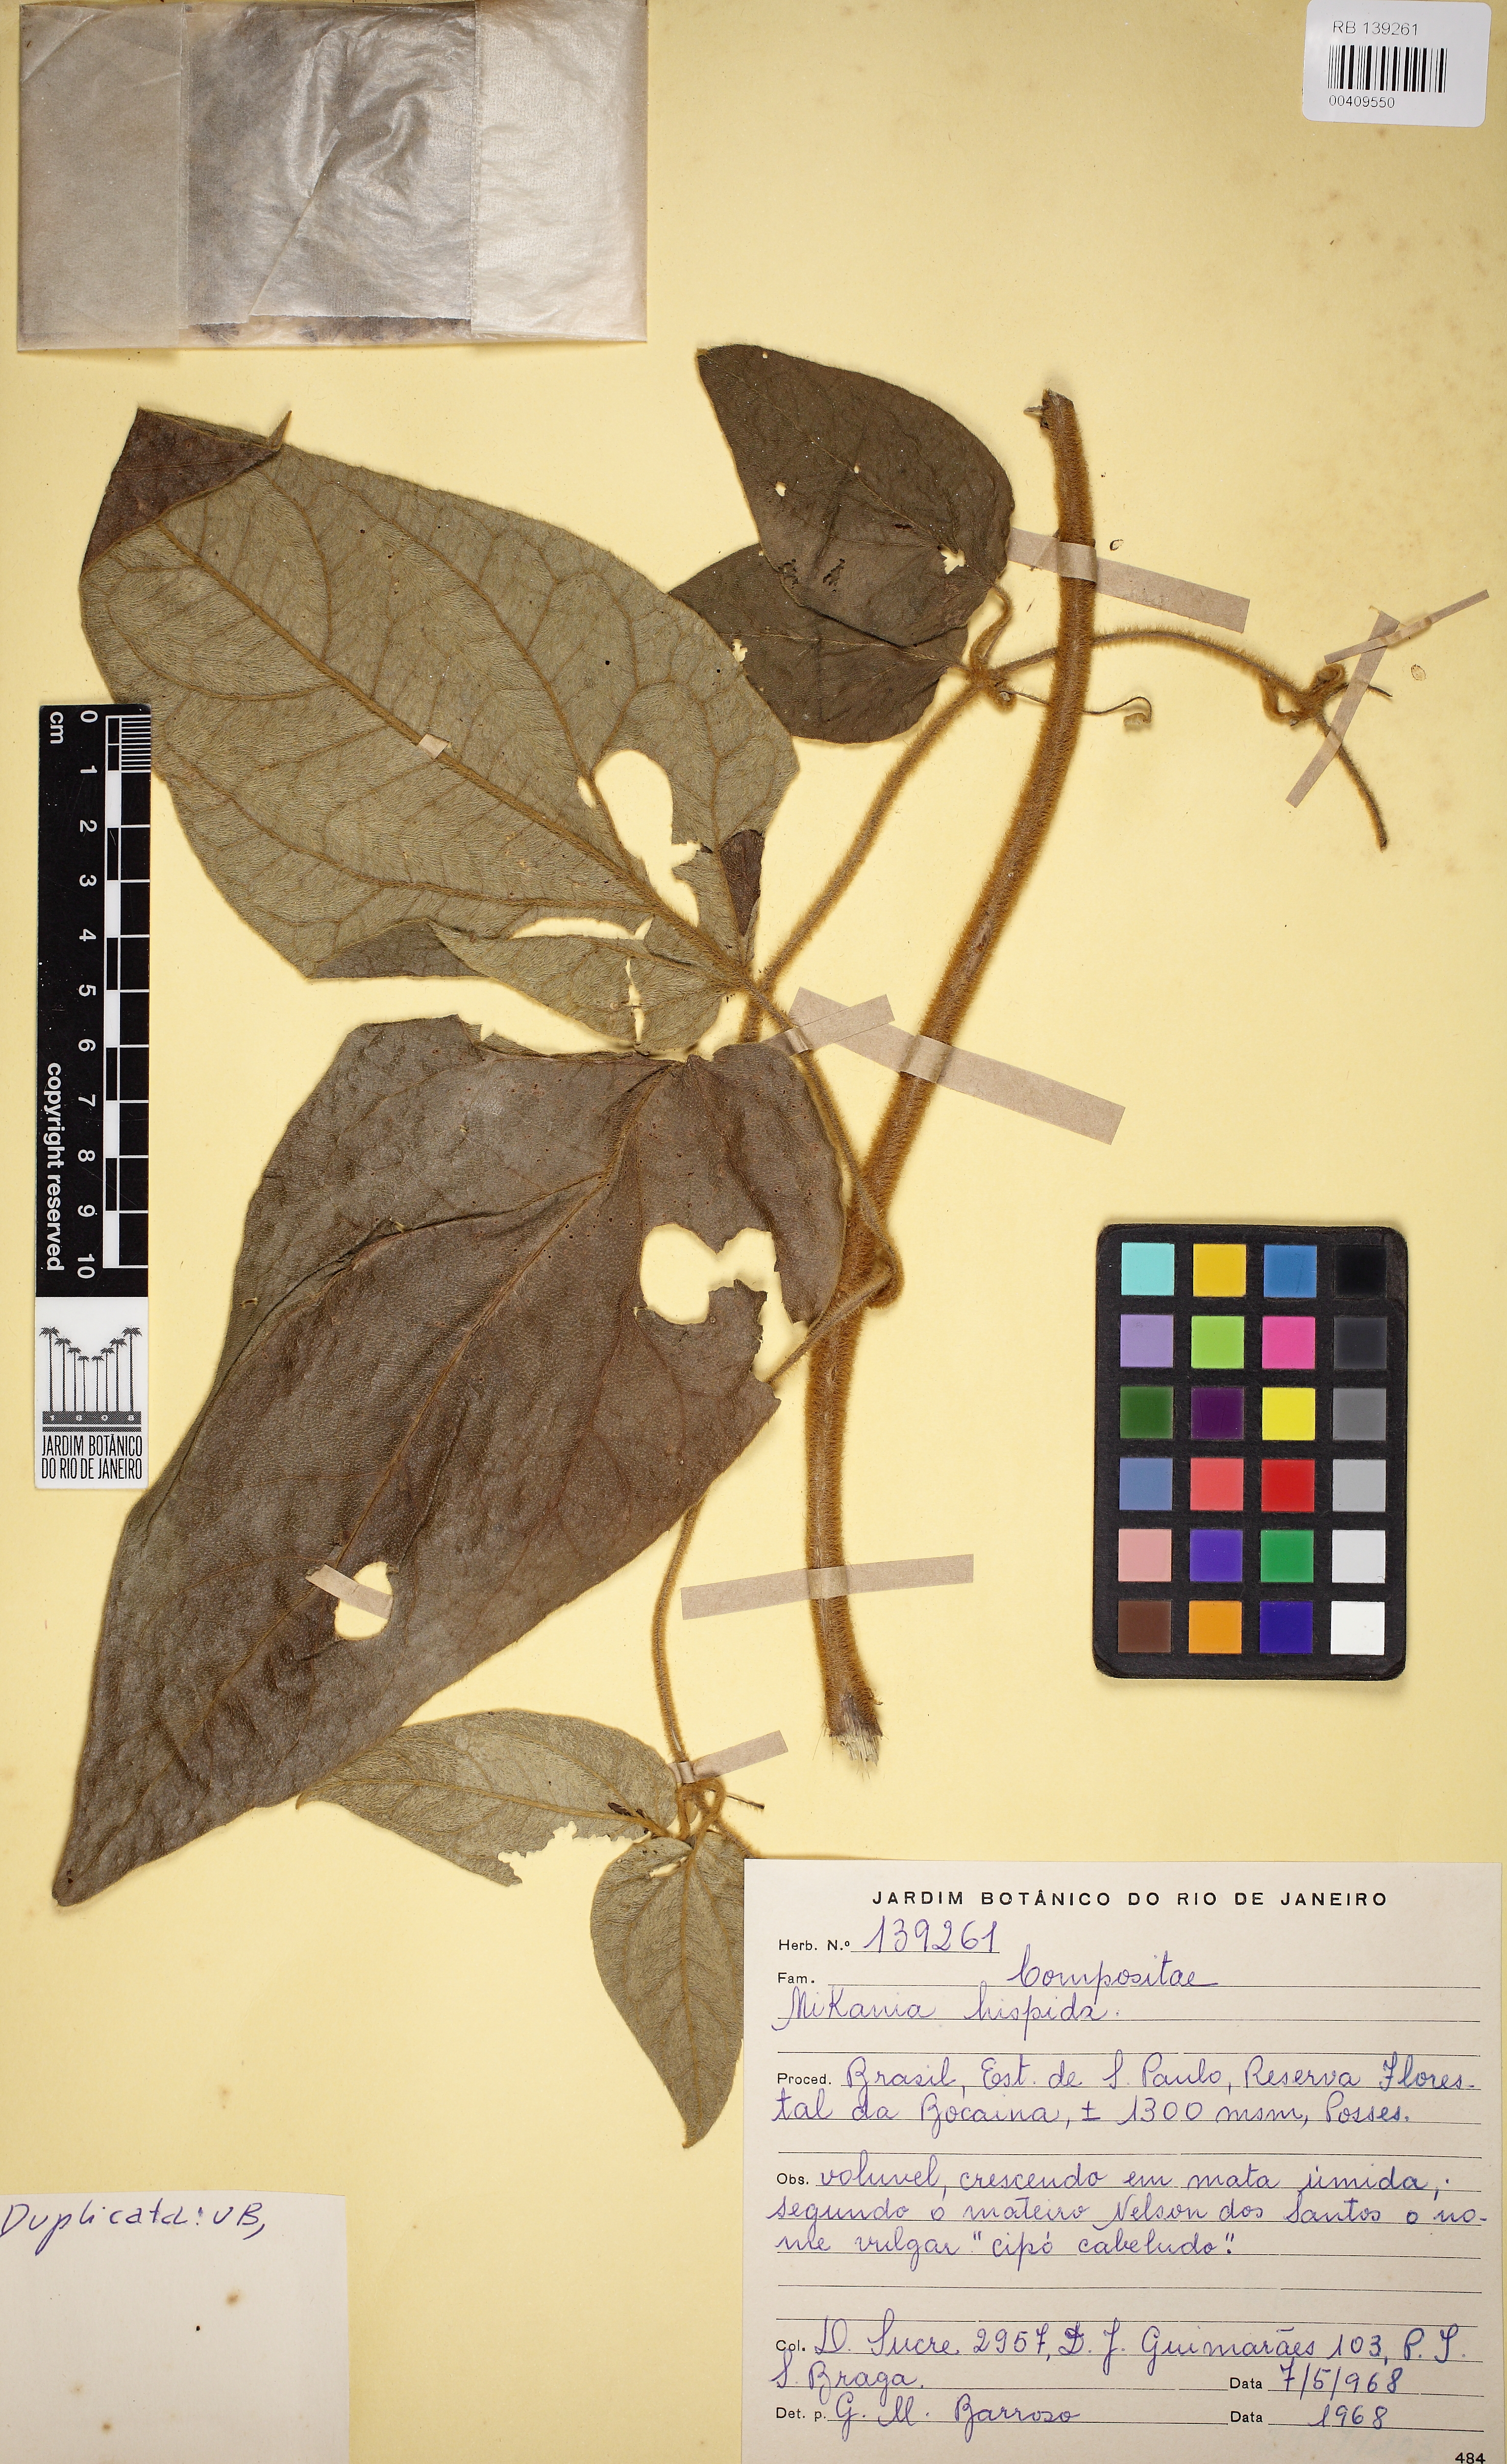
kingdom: Plantae
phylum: Tracheophyta
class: Magnoliopsida
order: Asterales
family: Asteraceae
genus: Mikania
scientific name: Mikania conferta
